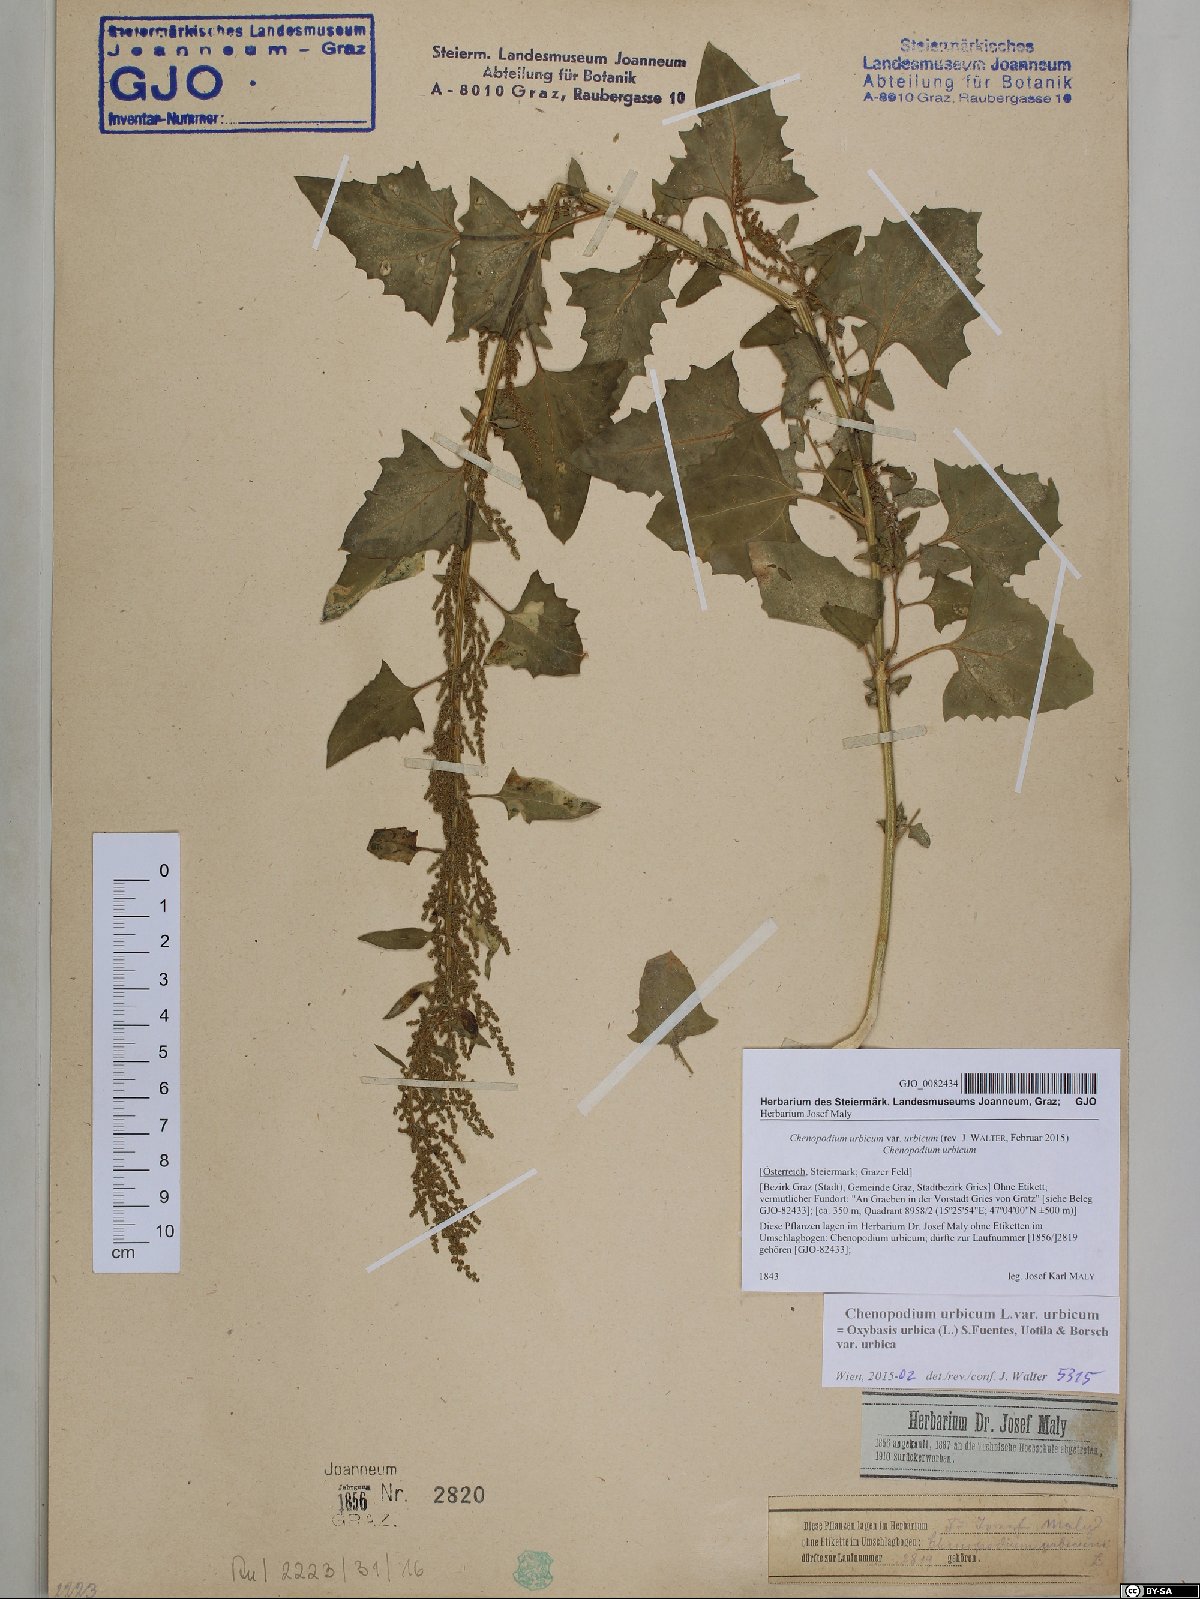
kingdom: Plantae
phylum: Tracheophyta
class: Magnoliopsida
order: Caryophyllales
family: Amaranthaceae
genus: Oxybasis
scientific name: Oxybasis urbica
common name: City goosefoot
